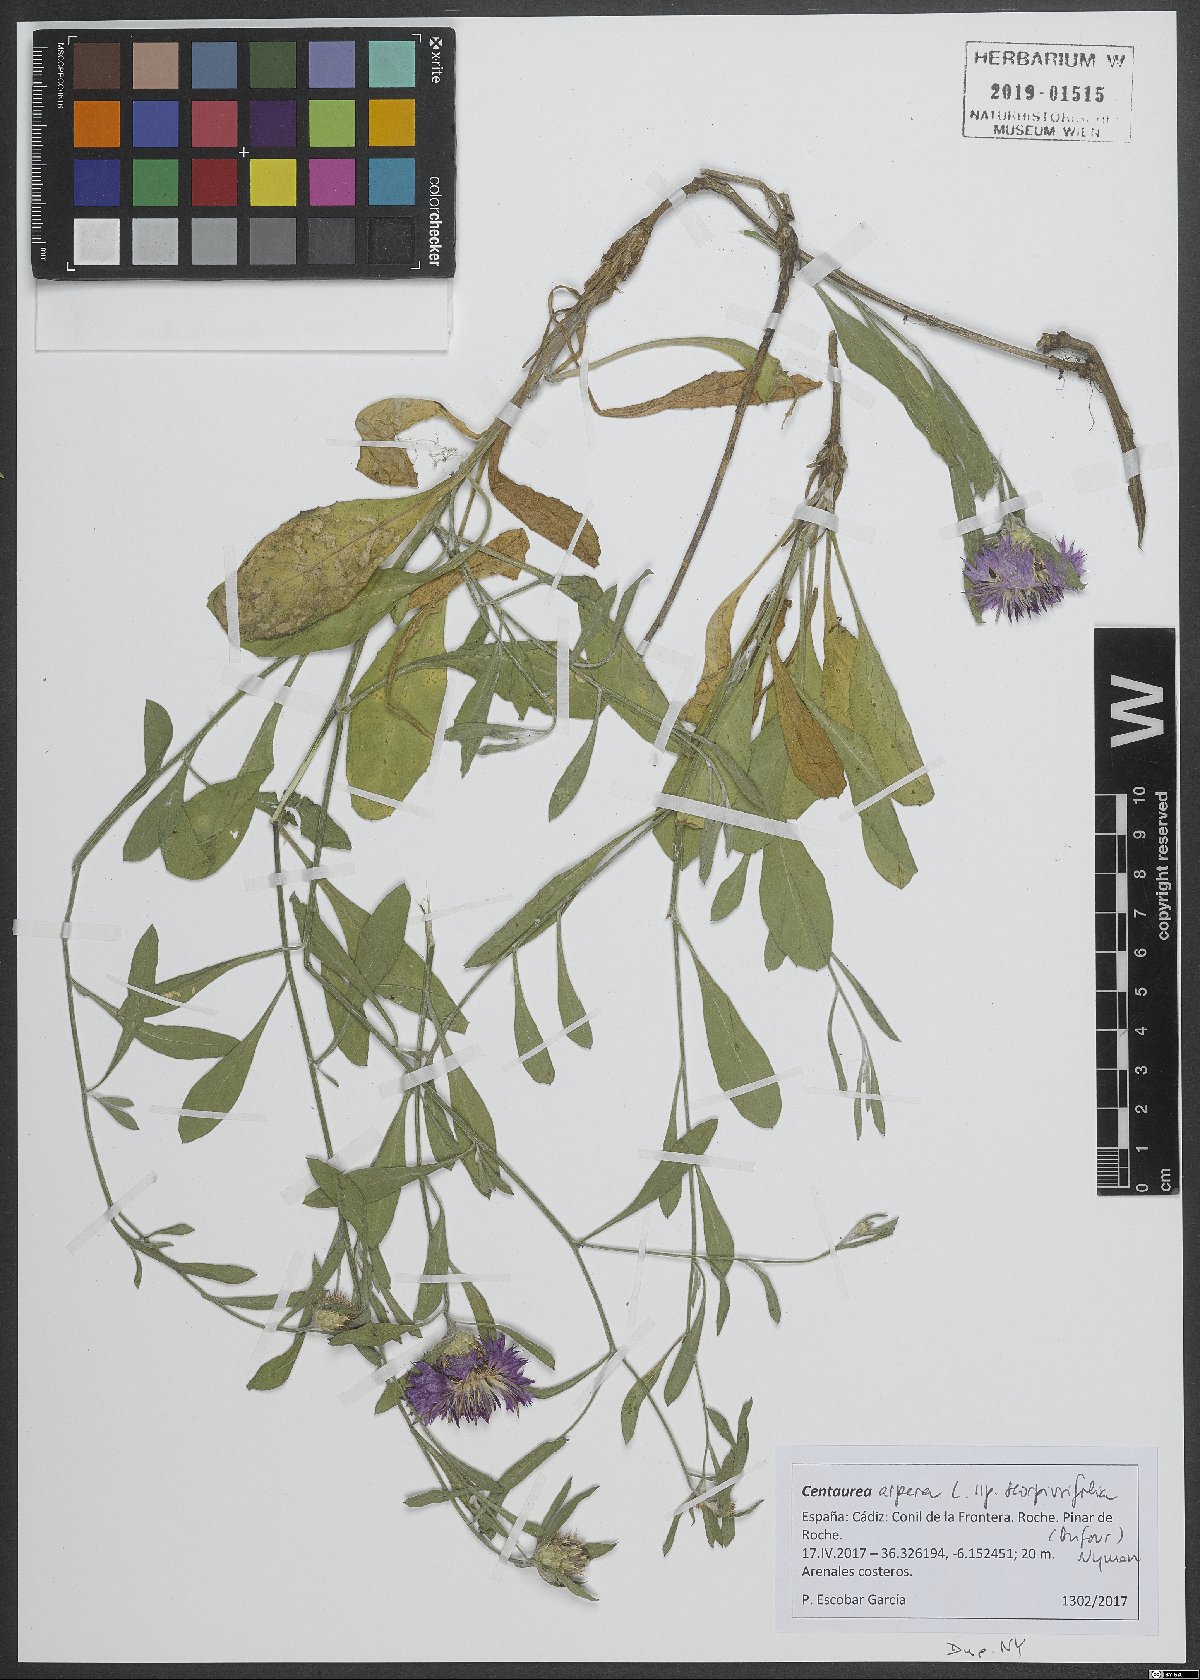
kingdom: Plantae
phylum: Tracheophyta
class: Magnoliopsida
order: Asterales
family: Asteraceae
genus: Centaurea
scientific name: Centaurea aspera
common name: Rough star-thistle
